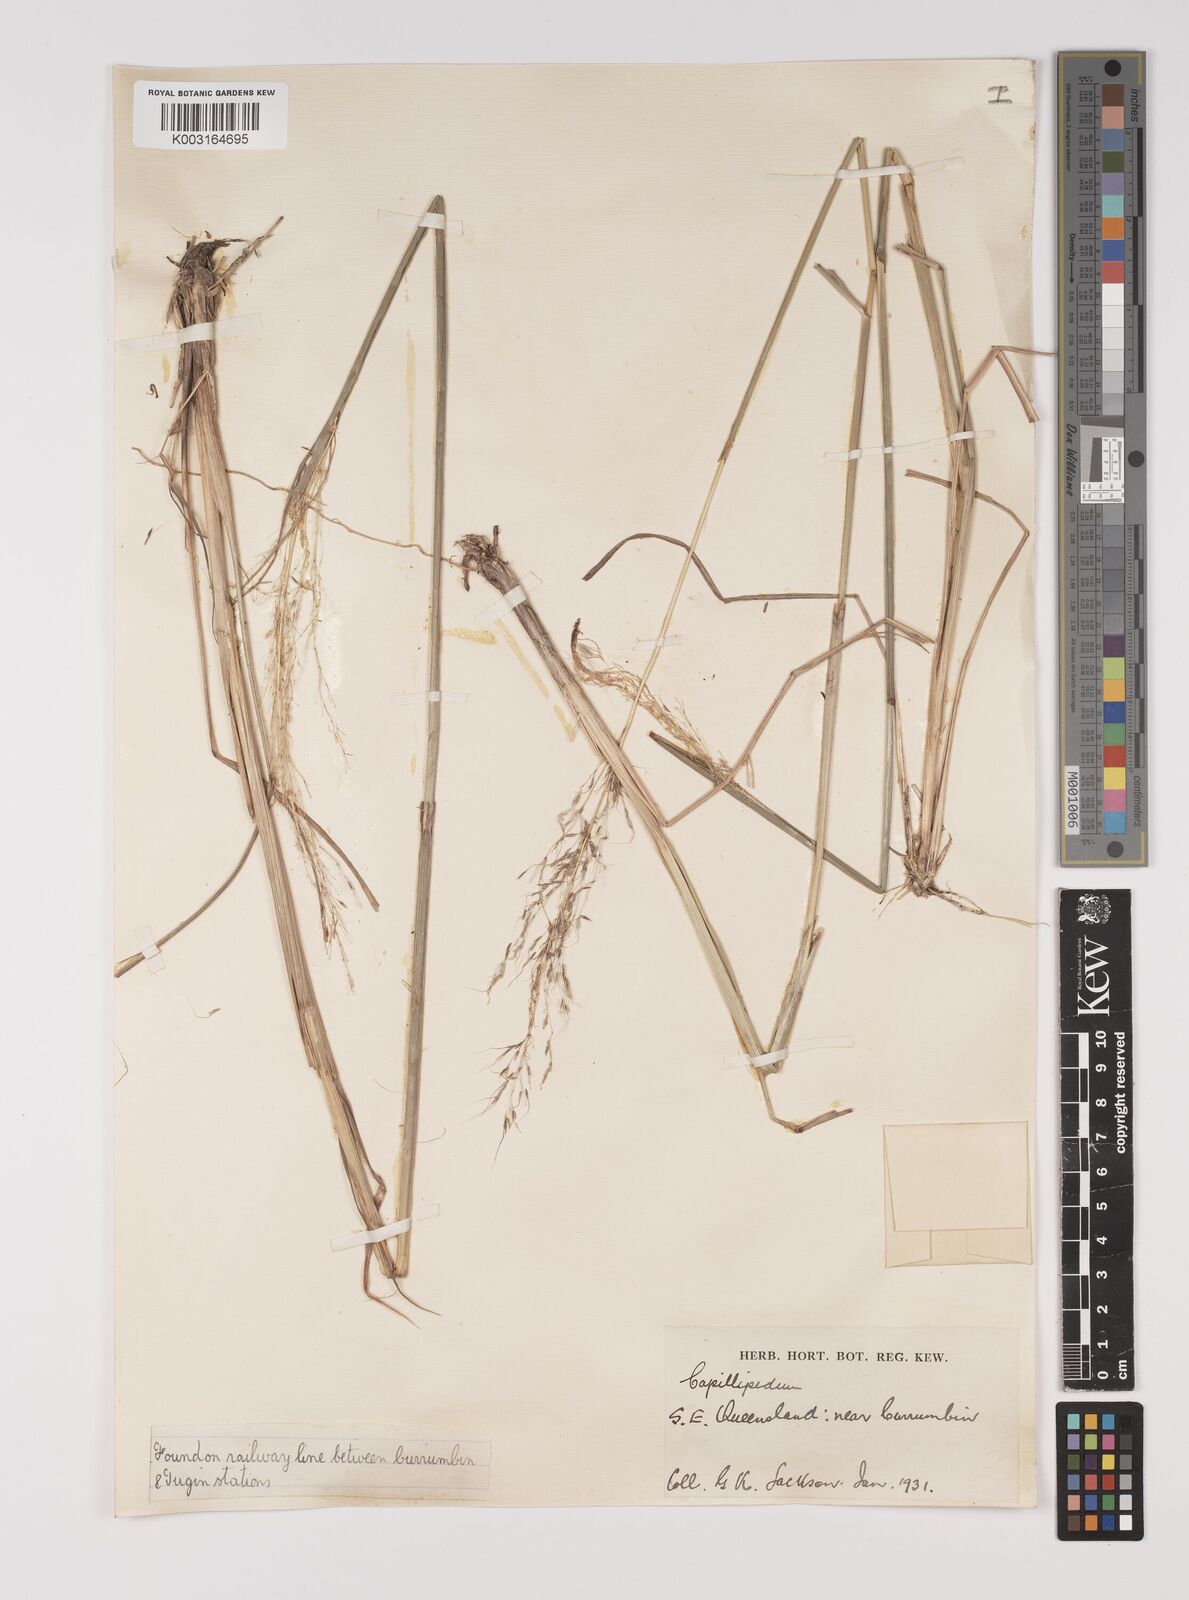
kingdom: Plantae
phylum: Tracheophyta
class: Liliopsida
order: Poales
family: Poaceae
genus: Capillipedium
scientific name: Capillipedium parviflorum
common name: Golden-beard
